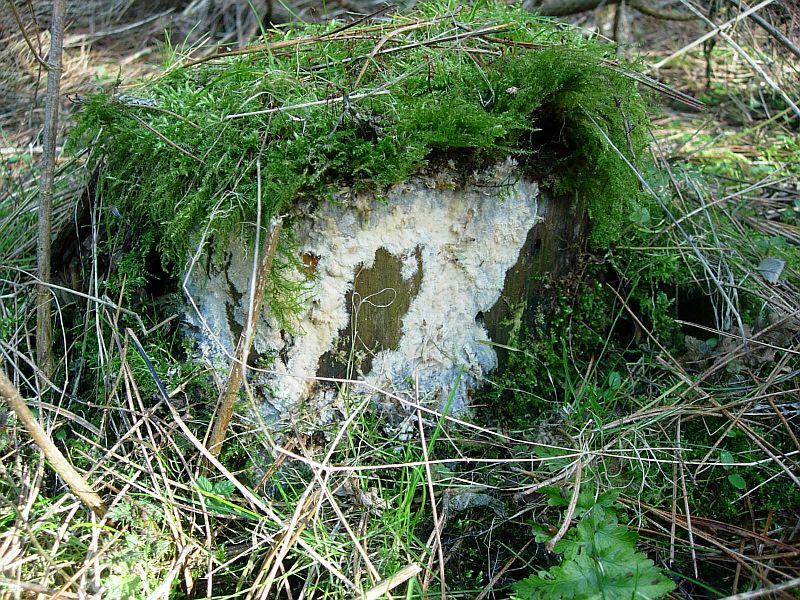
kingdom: Fungi
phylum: Basidiomycota
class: Agaricomycetes
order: Polyporales
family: Phanerochaetaceae
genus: Phlebiopsis
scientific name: Phlebiopsis gigantea
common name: kæmpebarksvamp
